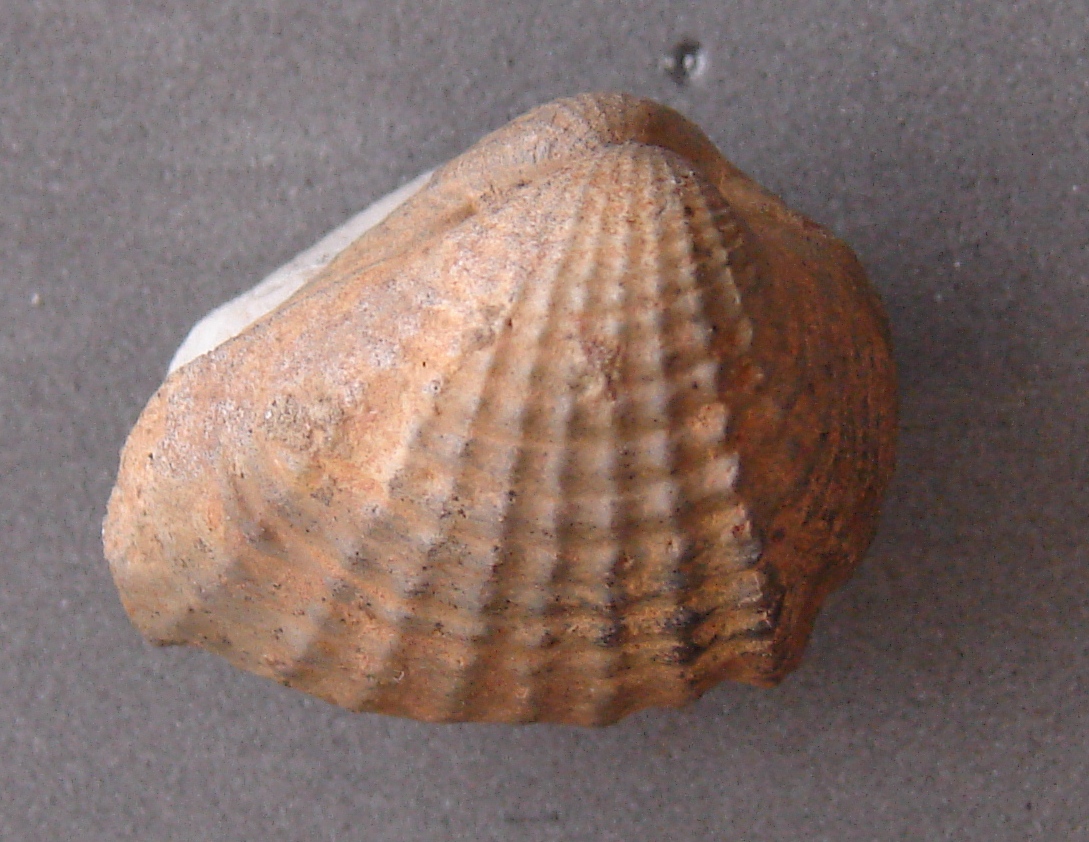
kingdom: Animalia
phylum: Mollusca
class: Bivalvia
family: Pholadomyidae
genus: Pholadomya
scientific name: Pholadomya lirata
